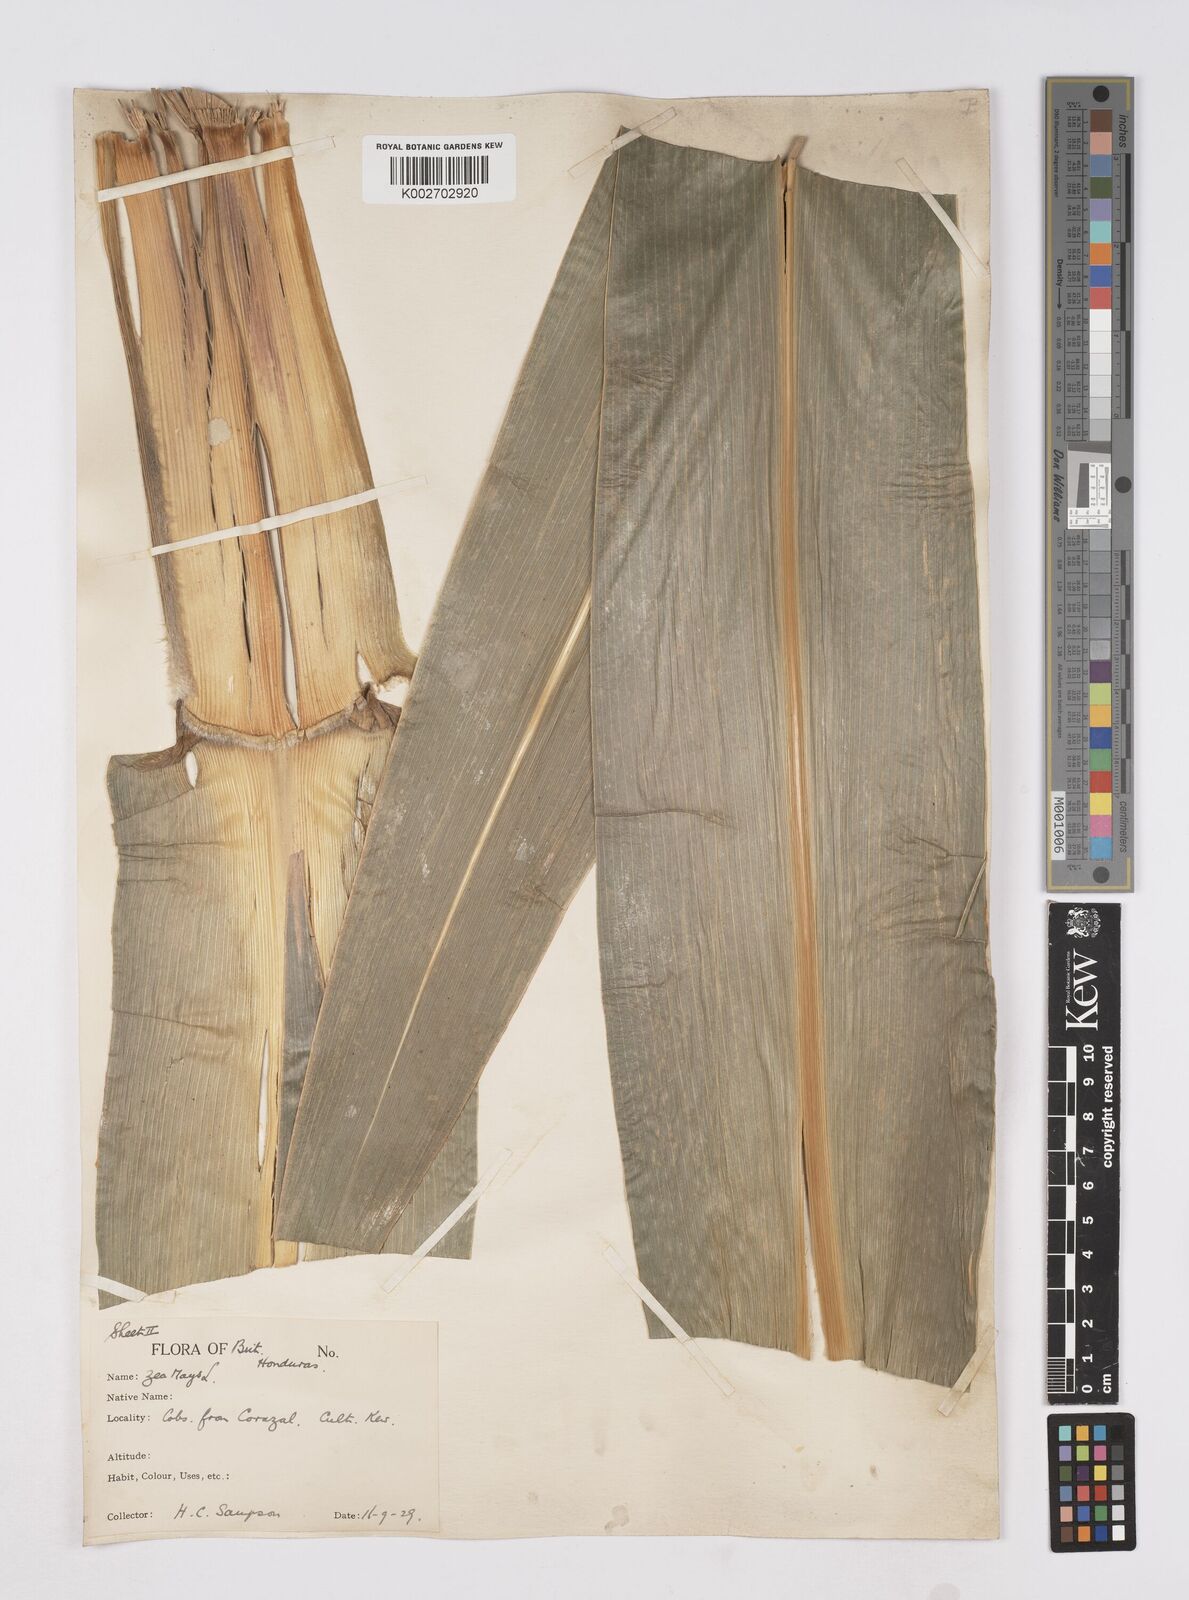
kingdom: Plantae
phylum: Tracheophyta
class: Liliopsida
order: Poales
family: Poaceae
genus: Zea
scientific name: Zea mays
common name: Maize
